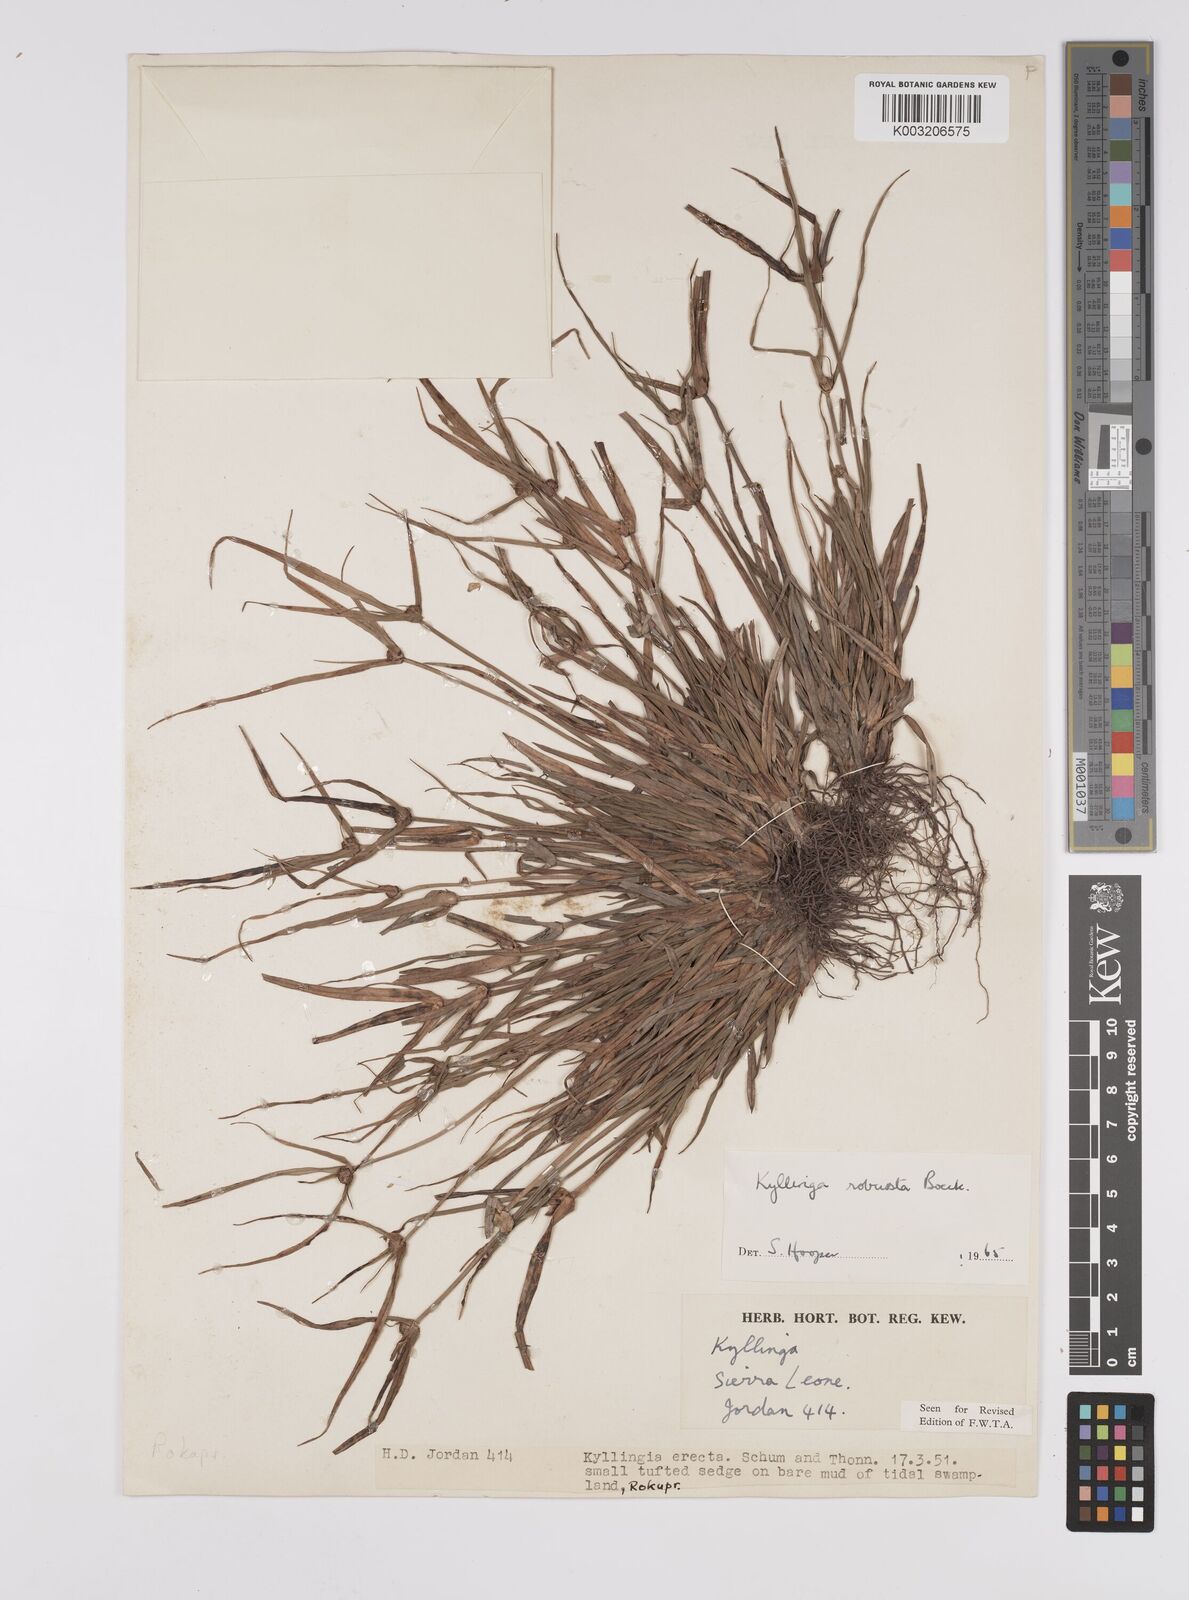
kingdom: Plantae
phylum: Tracheophyta
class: Liliopsida
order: Poales
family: Cyperaceae
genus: Cyperus
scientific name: Cyperus
